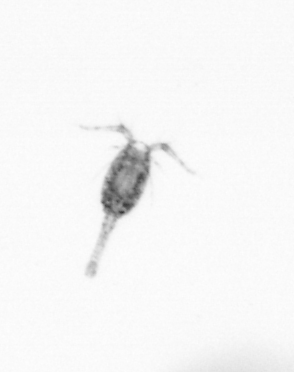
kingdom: Animalia
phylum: Arthropoda
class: Copepoda
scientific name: Copepoda
